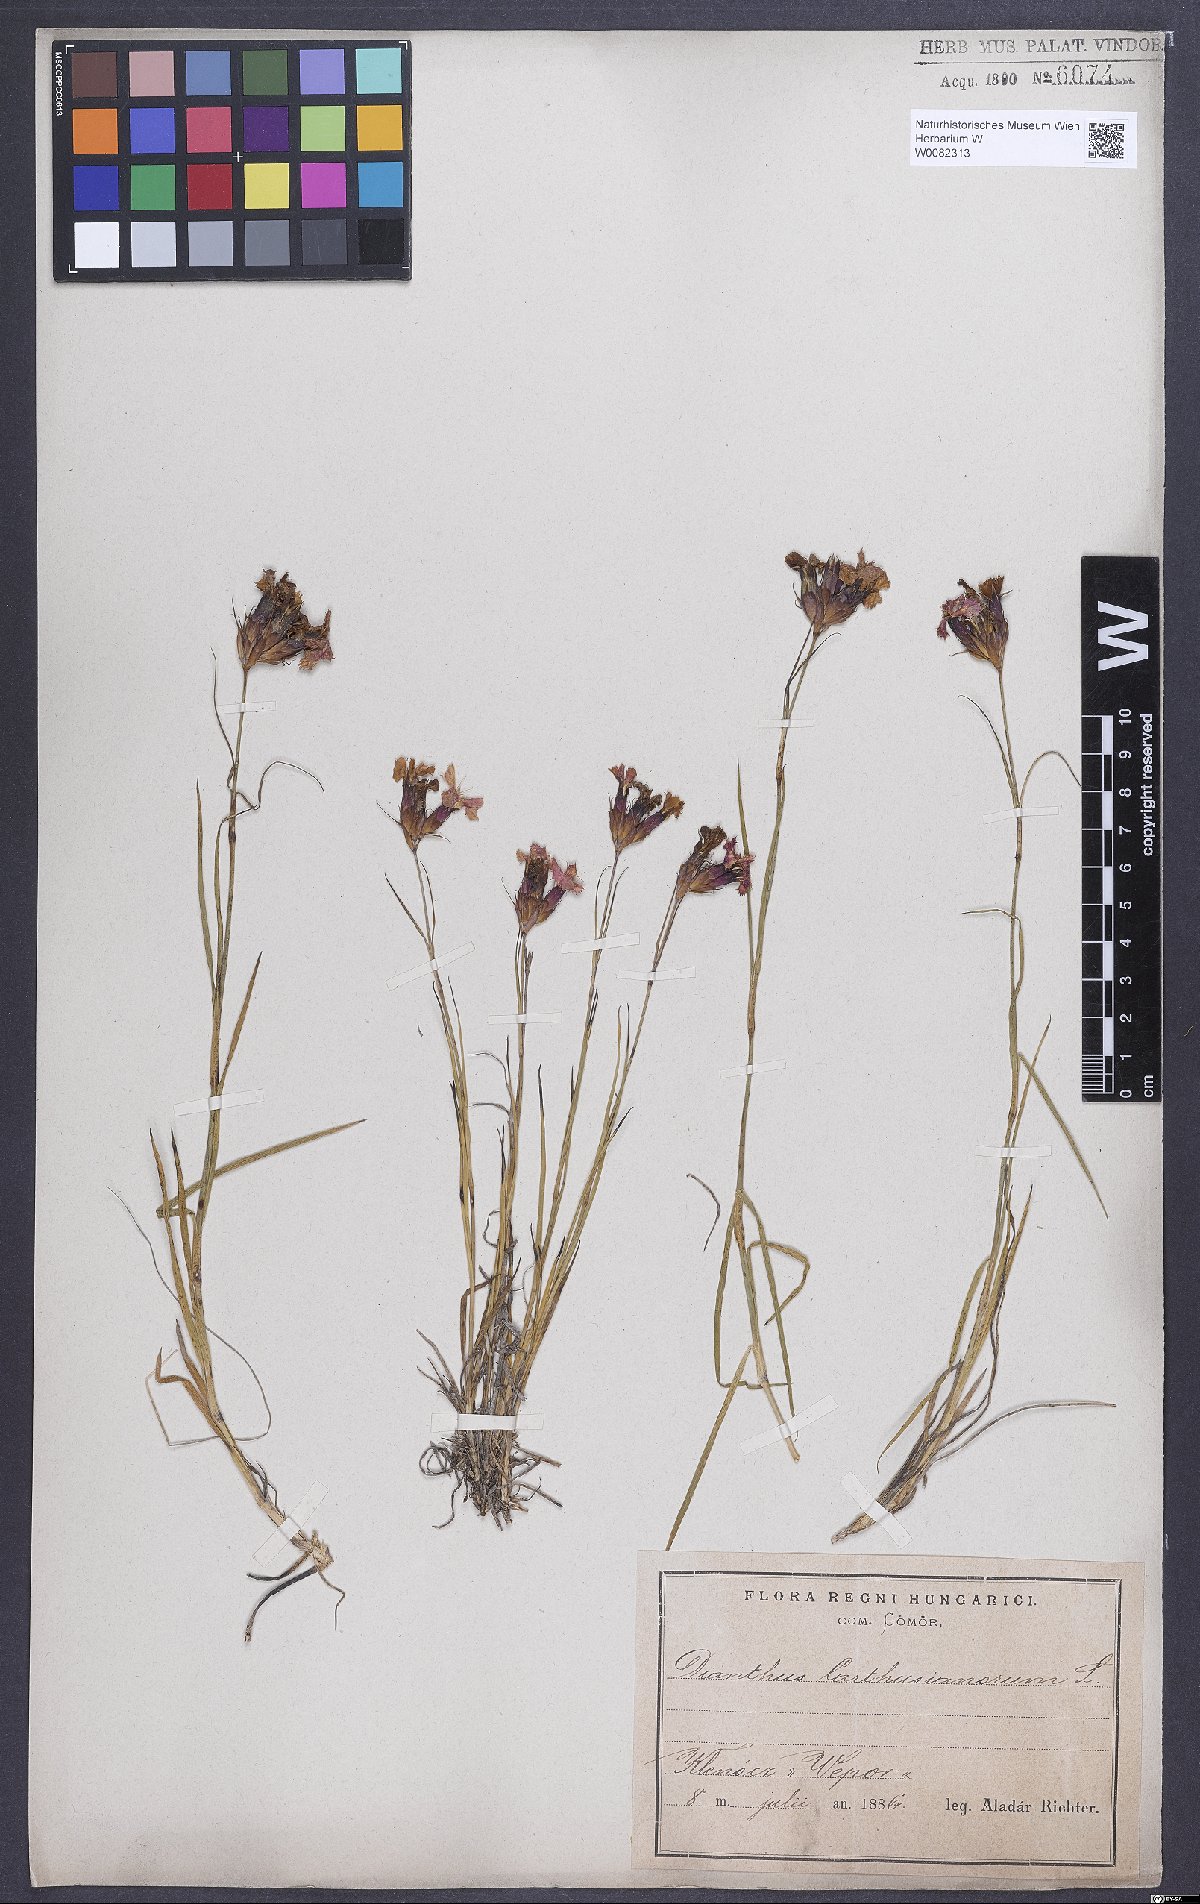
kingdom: Plantae
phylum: Tracheophyta
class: Magnoliopsida
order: Caryophyllales
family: Caryophyllaceae
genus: Dianthus
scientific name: Dianthus carthusianorum
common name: Carthusian pink
